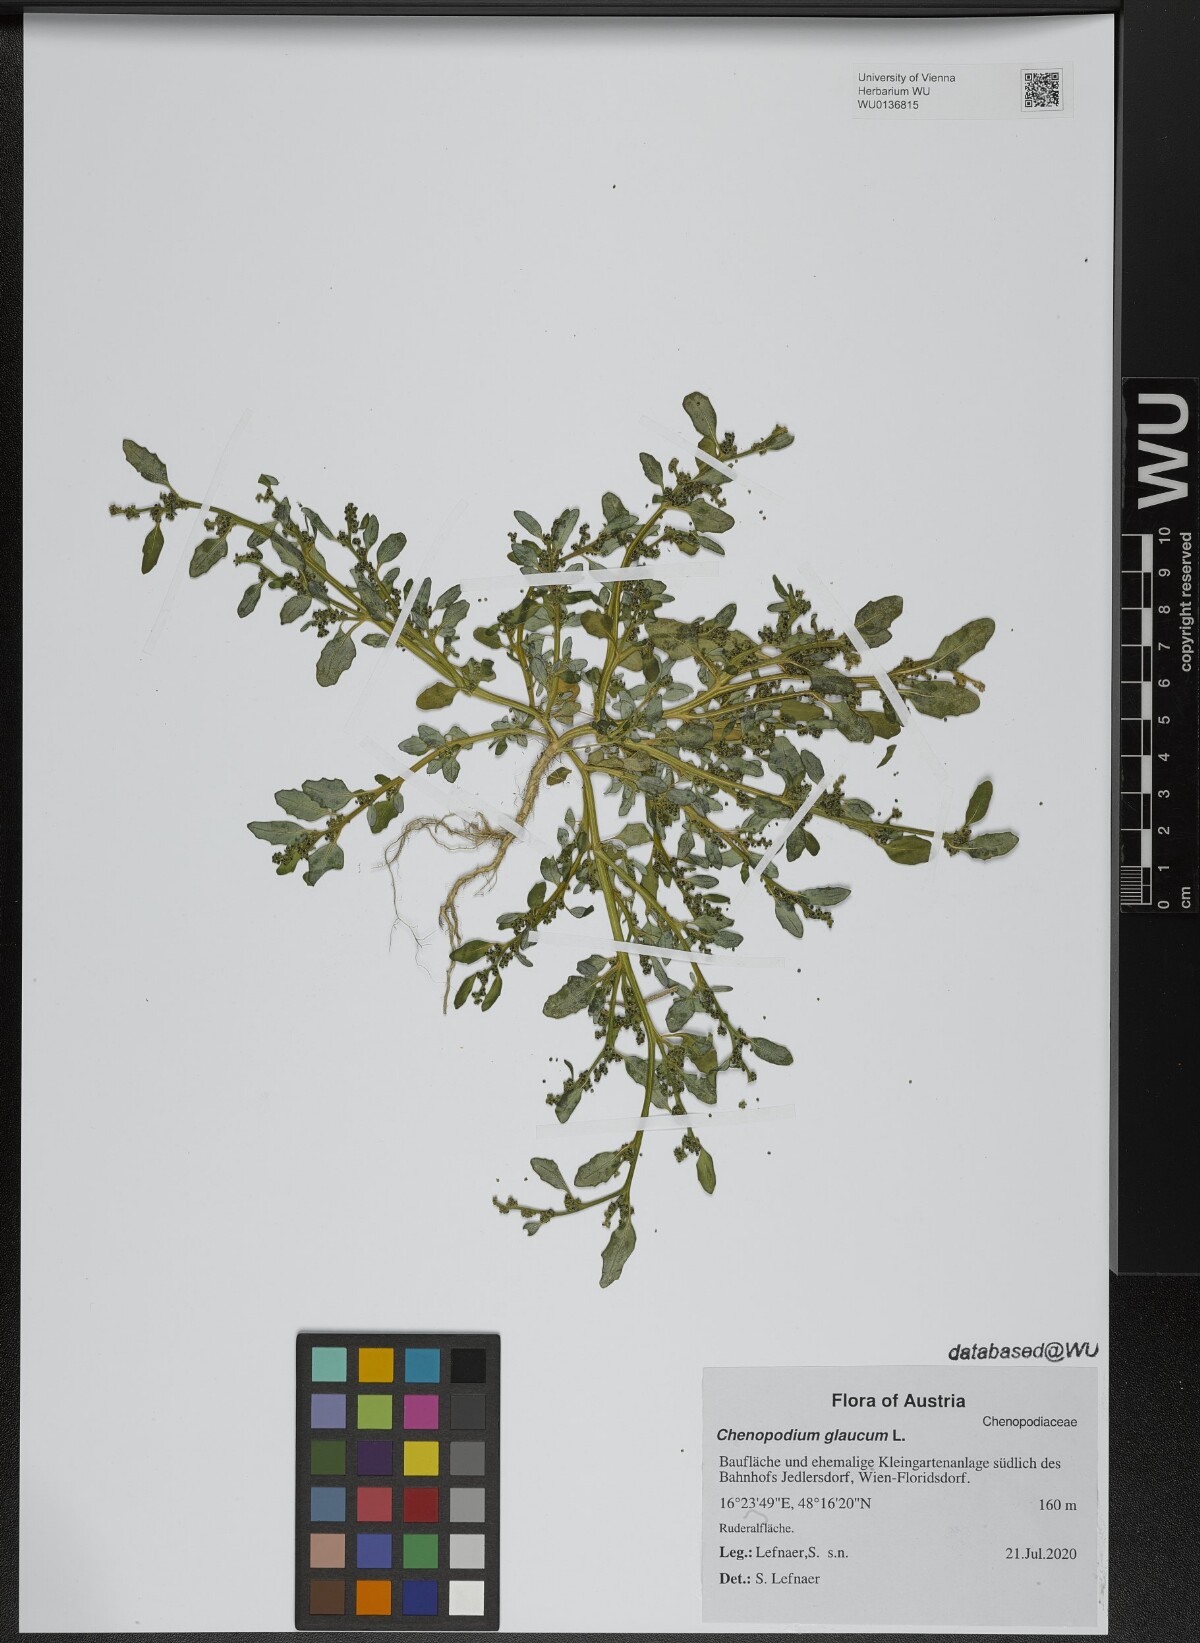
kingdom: Plantae
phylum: Tracheophyta
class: Magnoliopsida
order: Caryophyllales
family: Amaranthaceae
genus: Oxybasis
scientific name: Oxybasis glauca
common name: Glaucous goosefoot
